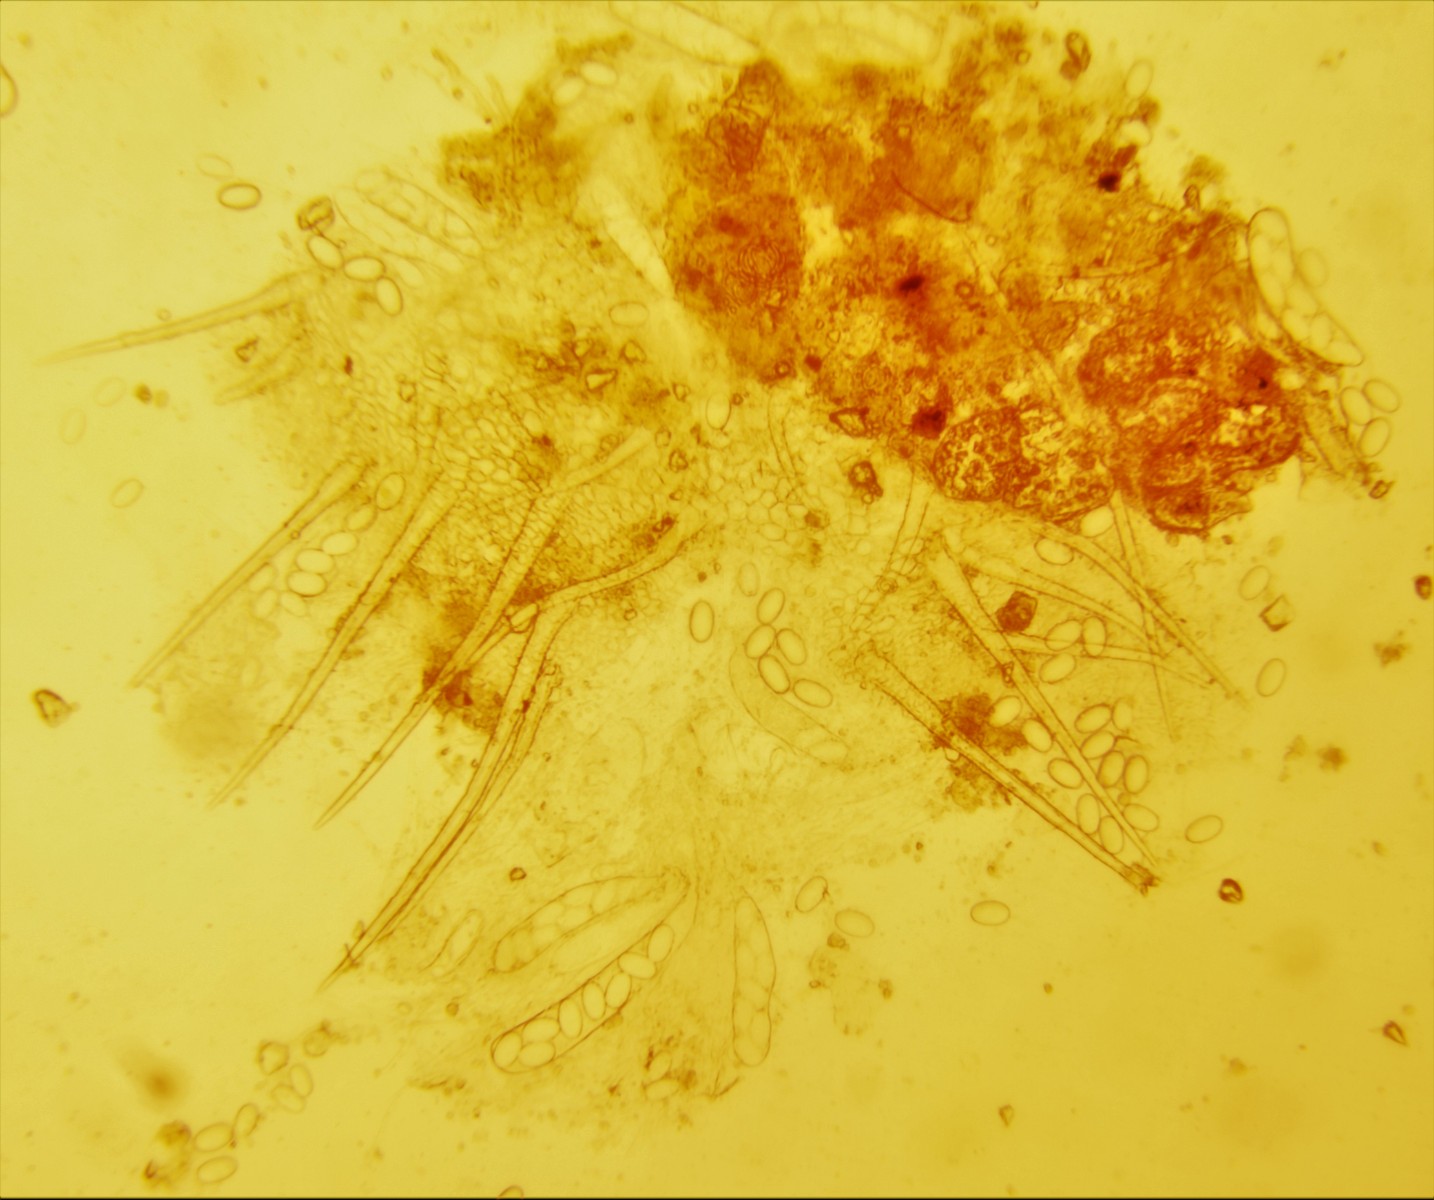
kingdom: Fungi
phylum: Ascomycota
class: Pezizomycetes
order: Pezizales
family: Ascodesmidaceae
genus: Lasiobolus
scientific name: Lasiobolus papillatus
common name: enradet øjebæger
